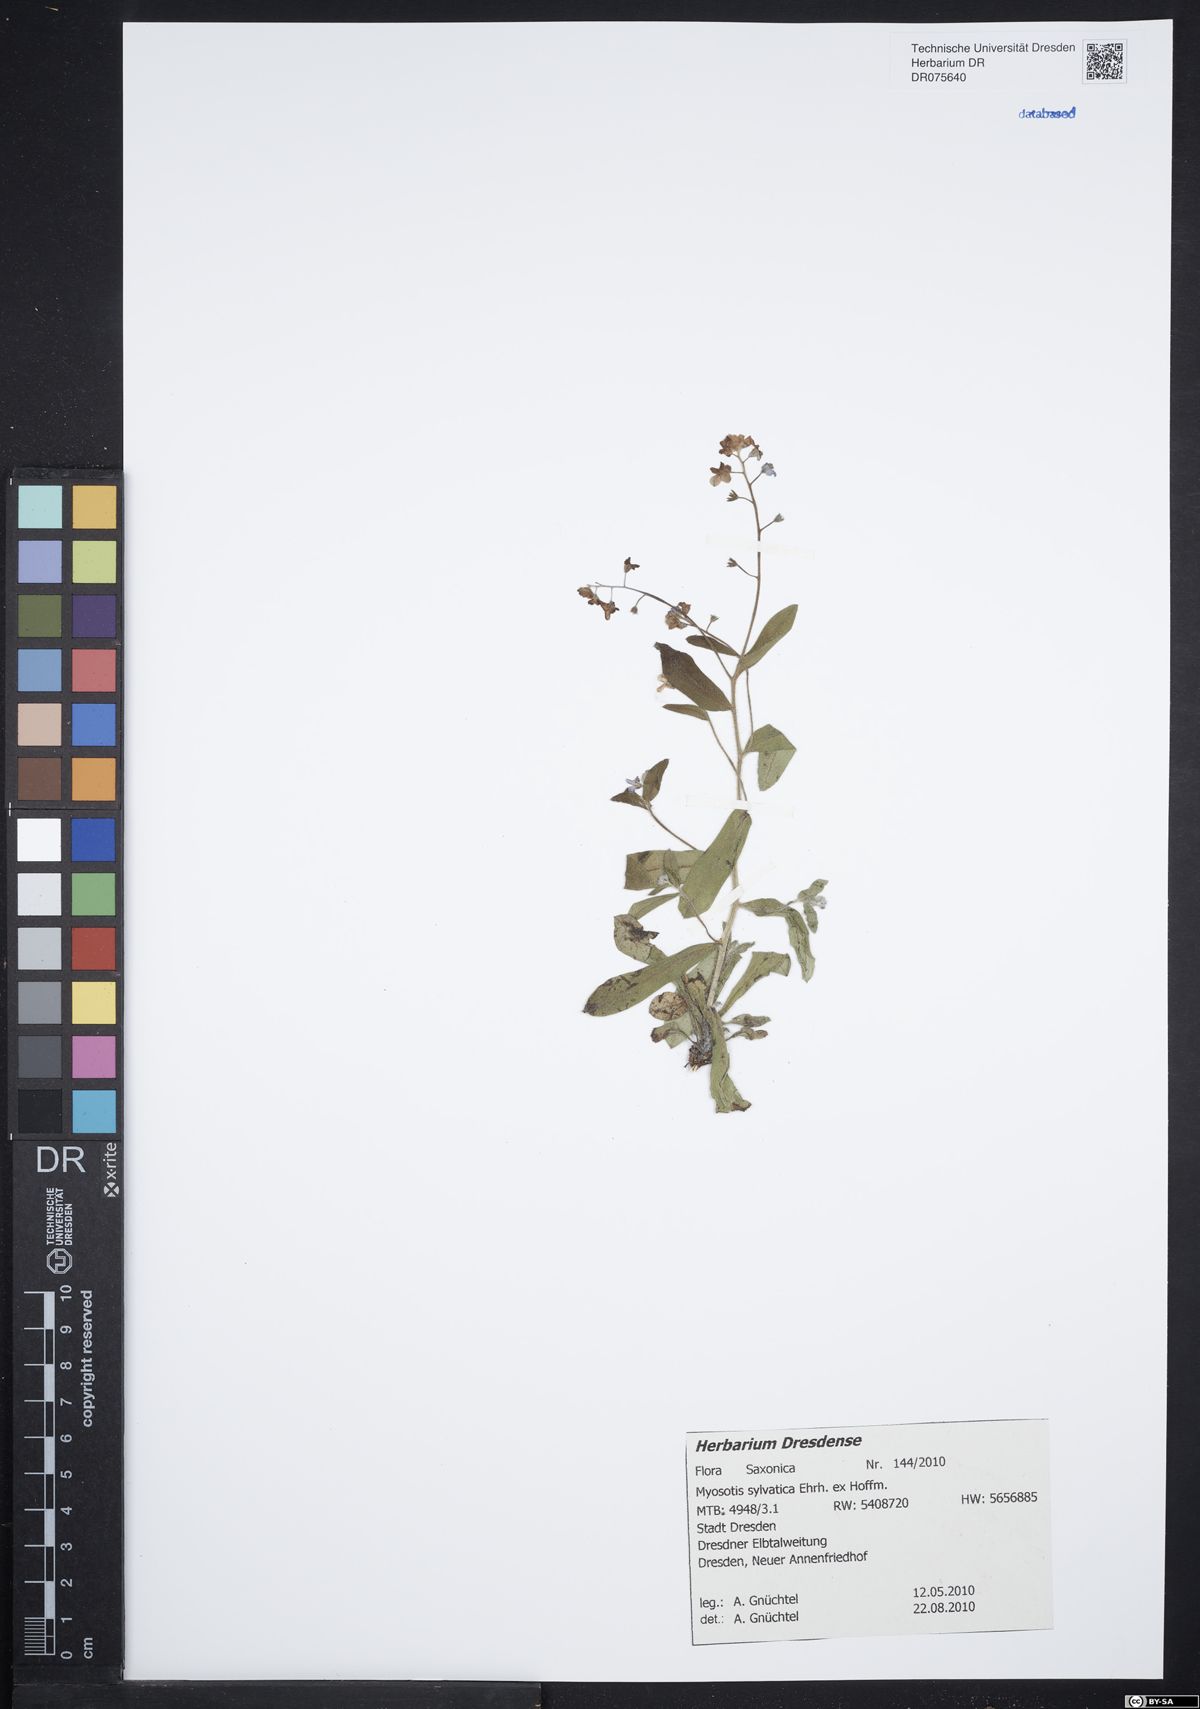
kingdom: Plantae
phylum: Tracheophyta
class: Magnoliopsida
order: Boraginales
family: Boraginaceae
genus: Myosotis
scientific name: Myosotis sylvatica
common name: Wood forget-me-not
